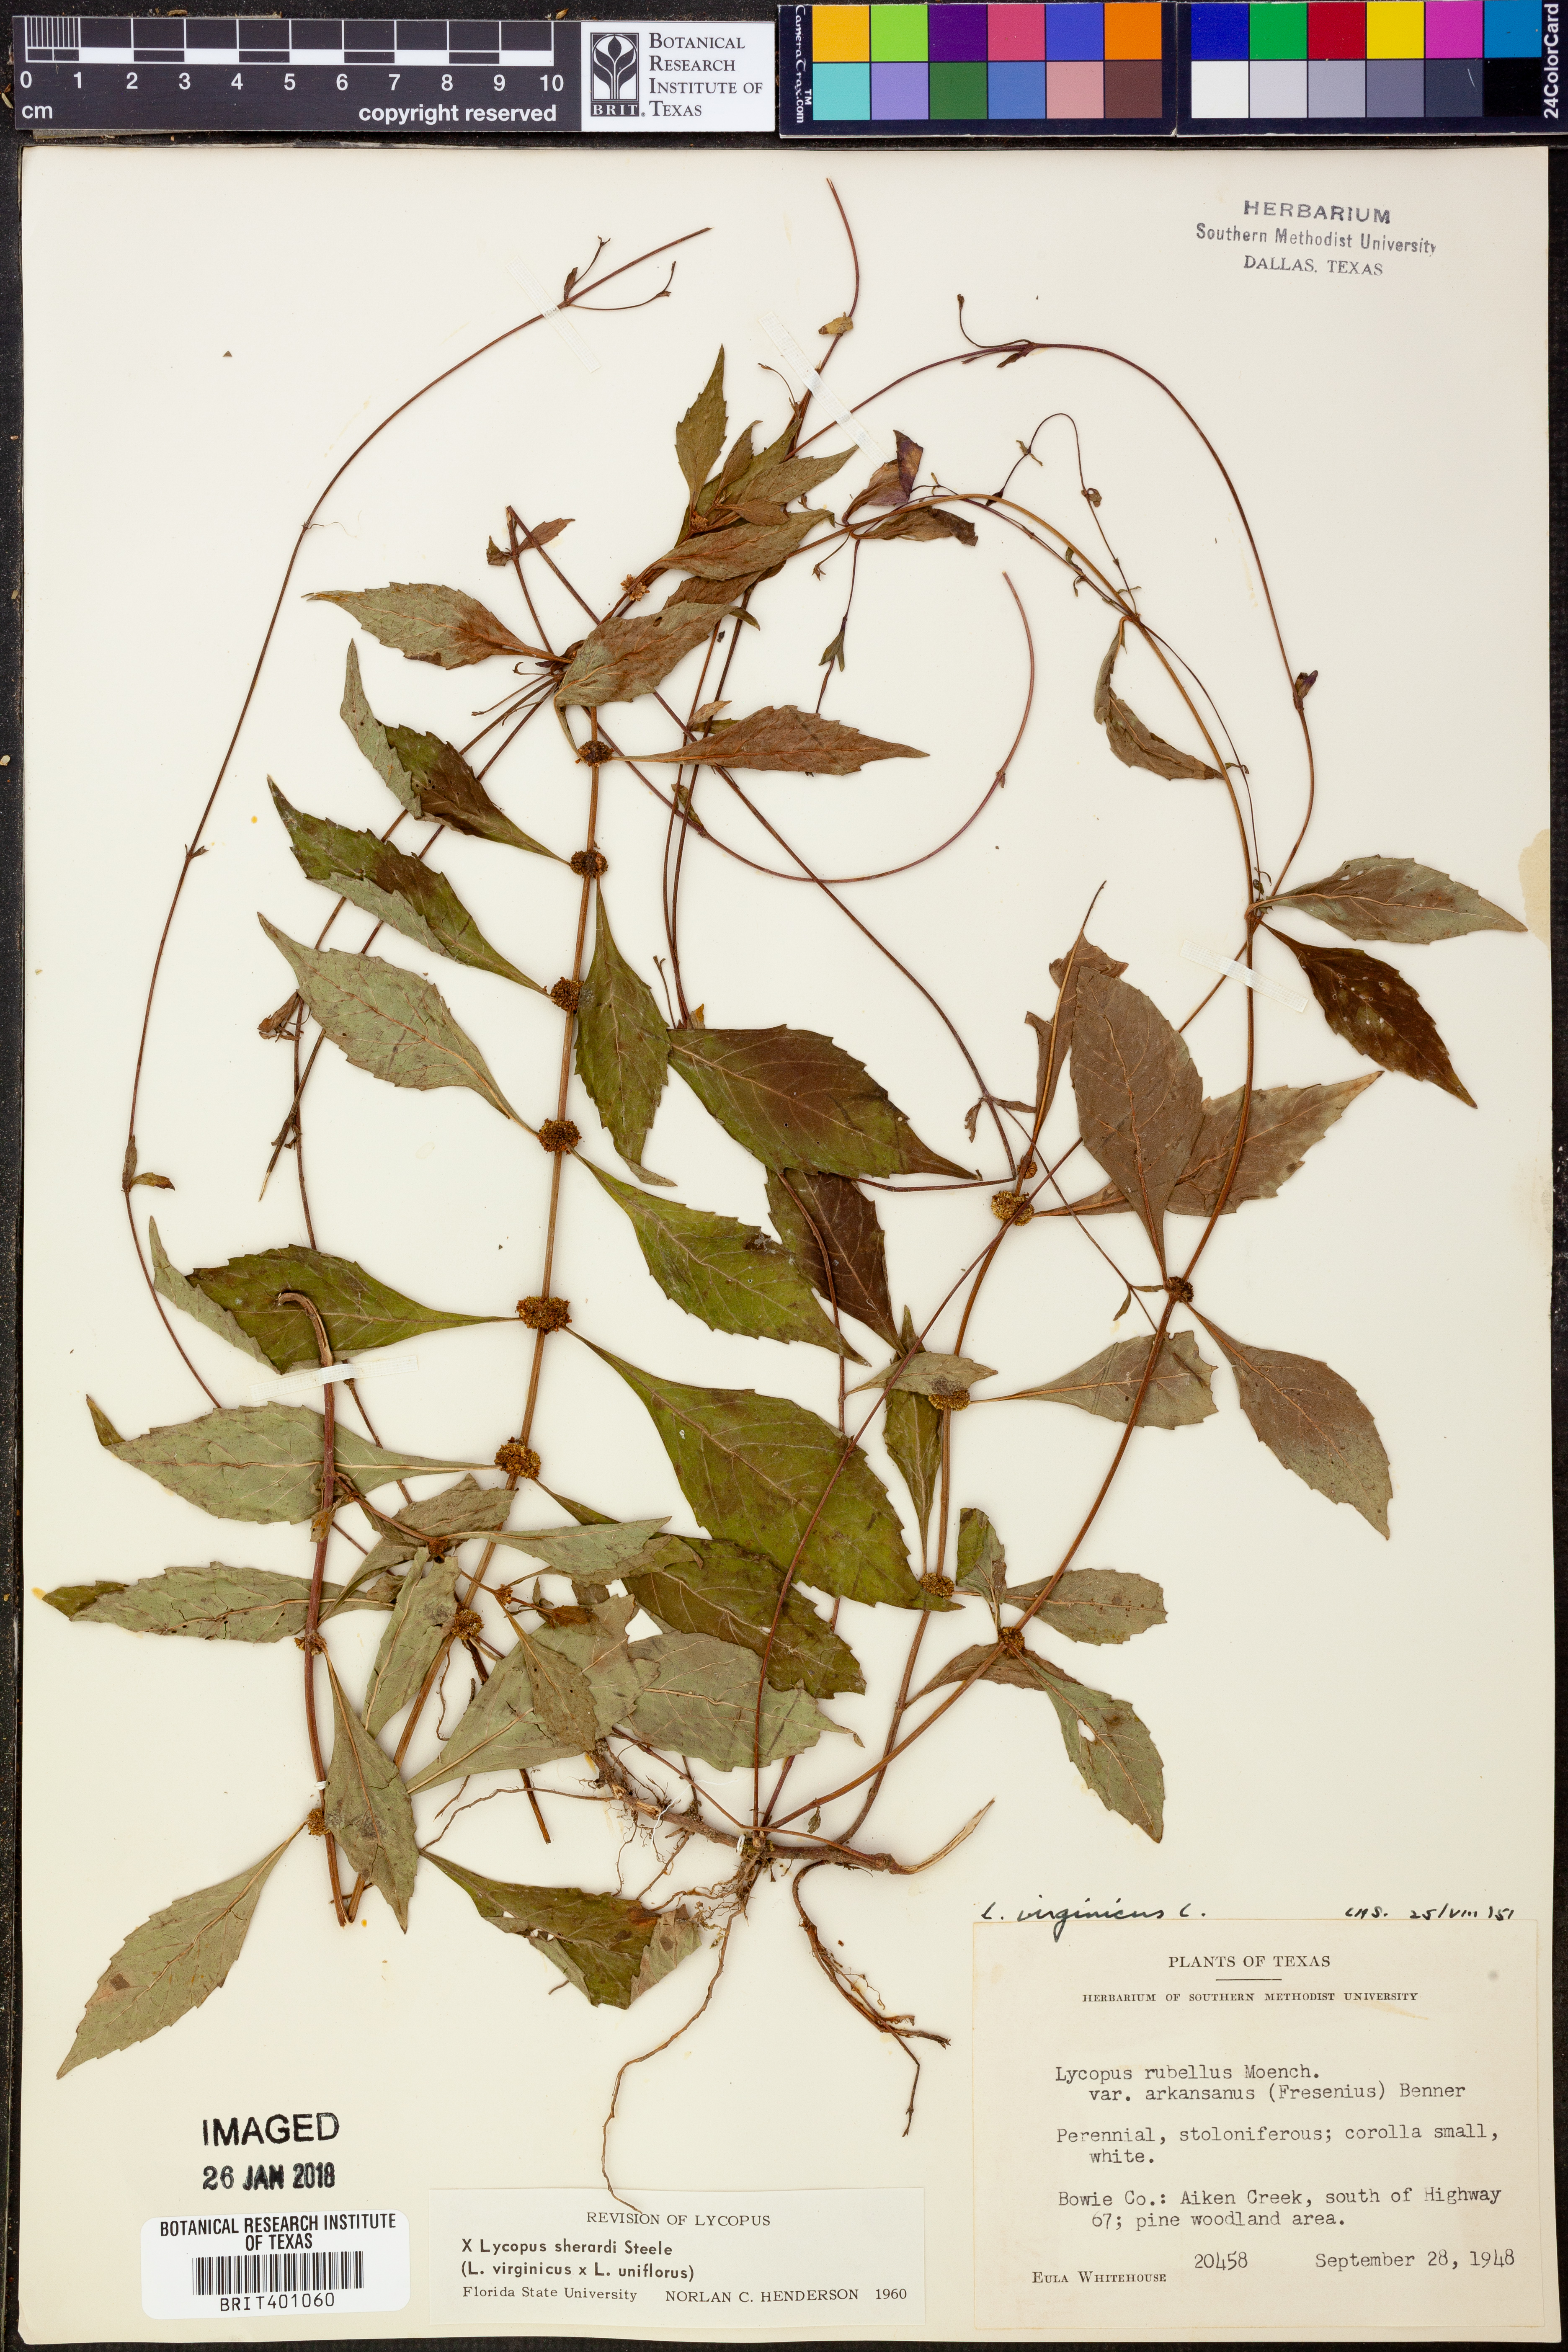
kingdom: Plantae
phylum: Tracheophyta
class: Magnoliopsida
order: Lamiales
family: Lamiaceae
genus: Lycopus
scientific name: Lycopus sherardii
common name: Sherard's water-horehound
